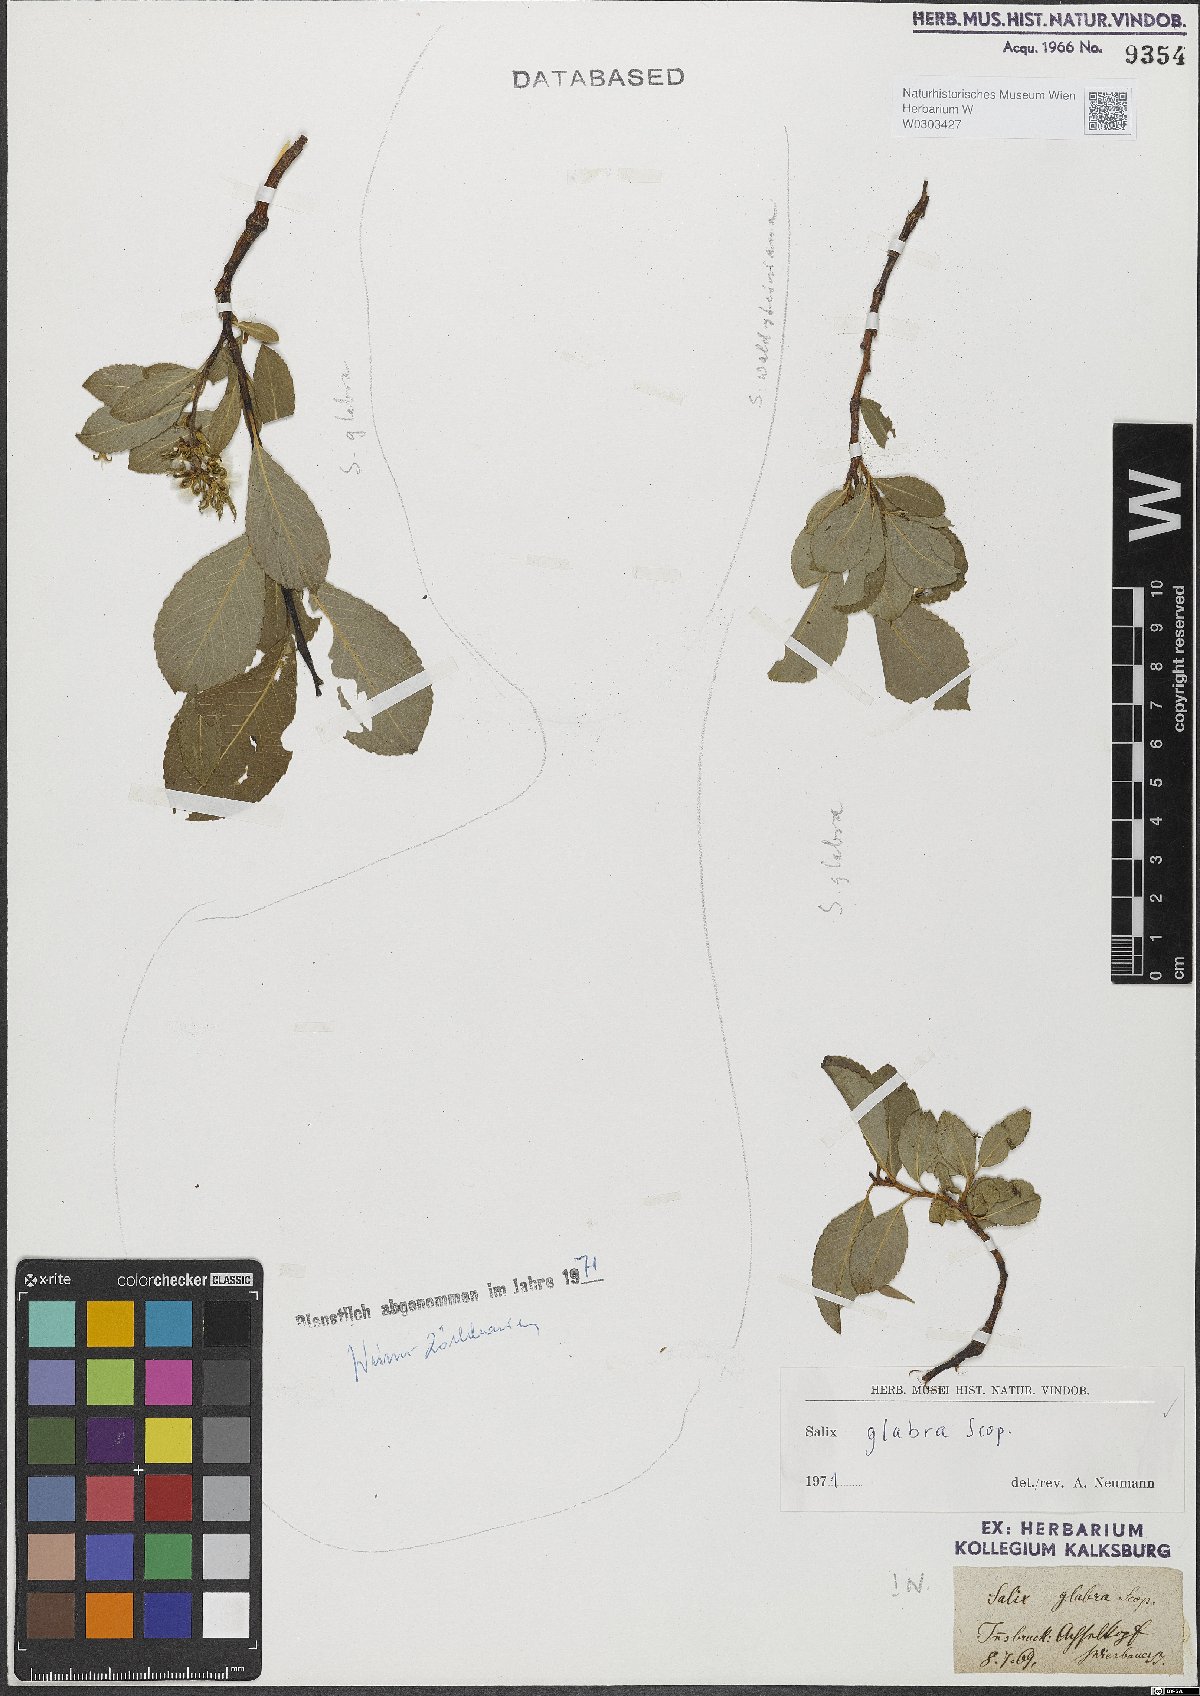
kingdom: Plantae
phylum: Tracheophyta
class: Magnoliopsida
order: Malpighiales
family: Salicaceae
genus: Salix
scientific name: Salix glabra
